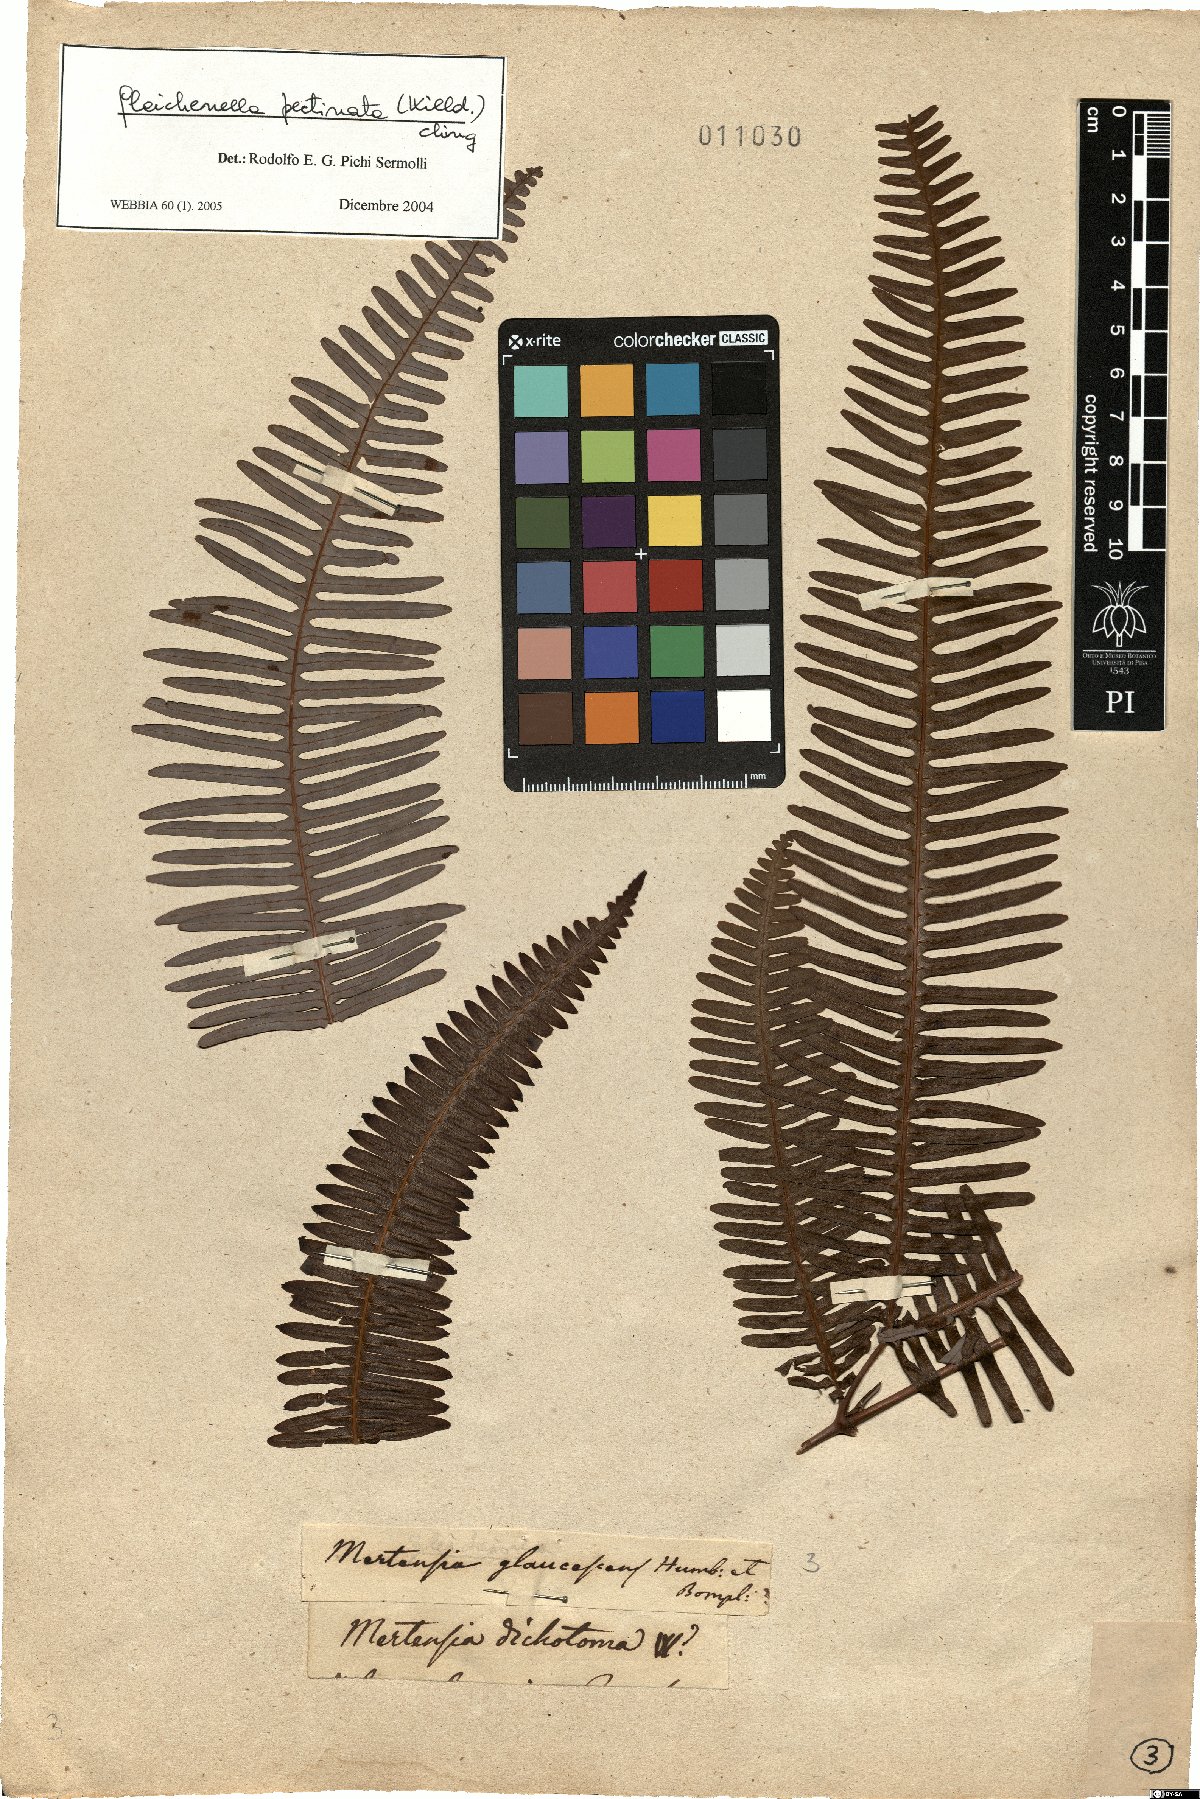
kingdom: Plantae
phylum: Tracheophyta
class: Polypodiopsida
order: Gleicheniales
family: Gleicheniaceae
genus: Gleichenella
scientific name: Gleichenella pectinata
